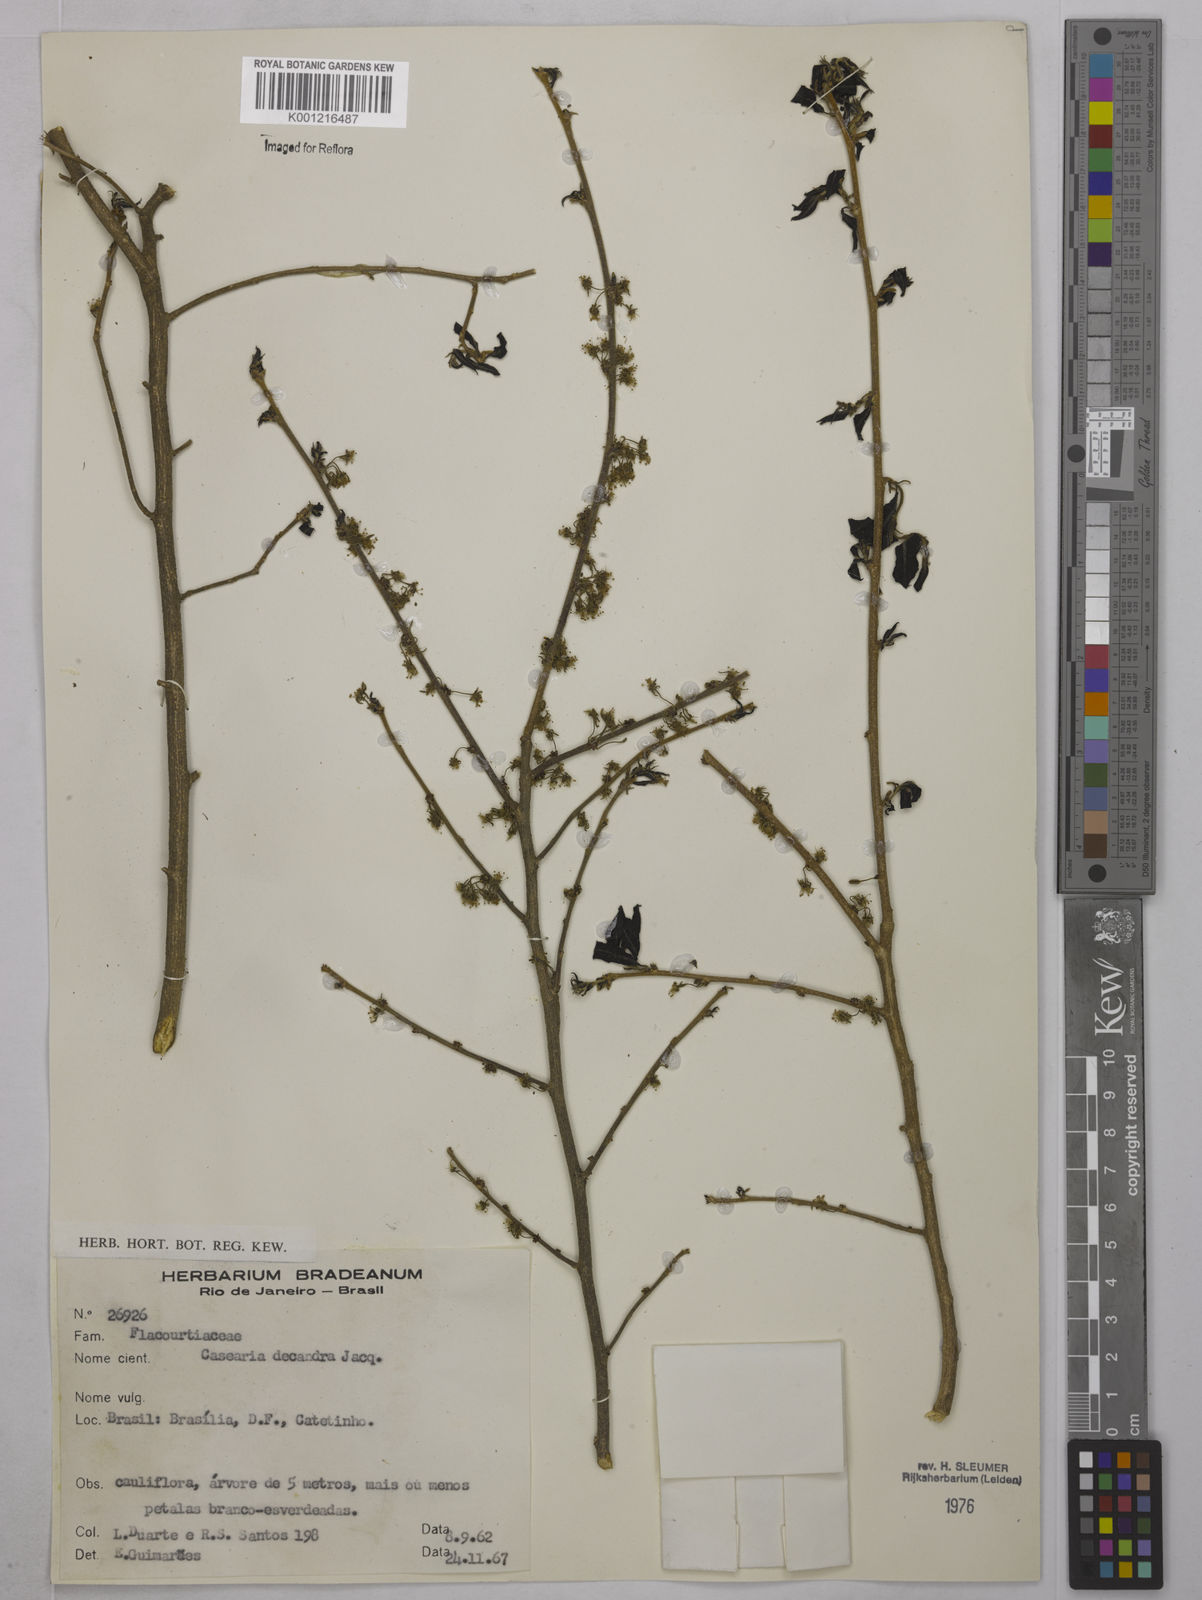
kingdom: Plantae
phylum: Tracheophyta
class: Magnoliopsida
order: Malpighiales
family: Salicaceae
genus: Casearia
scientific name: Casearia decandra
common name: Crack open
